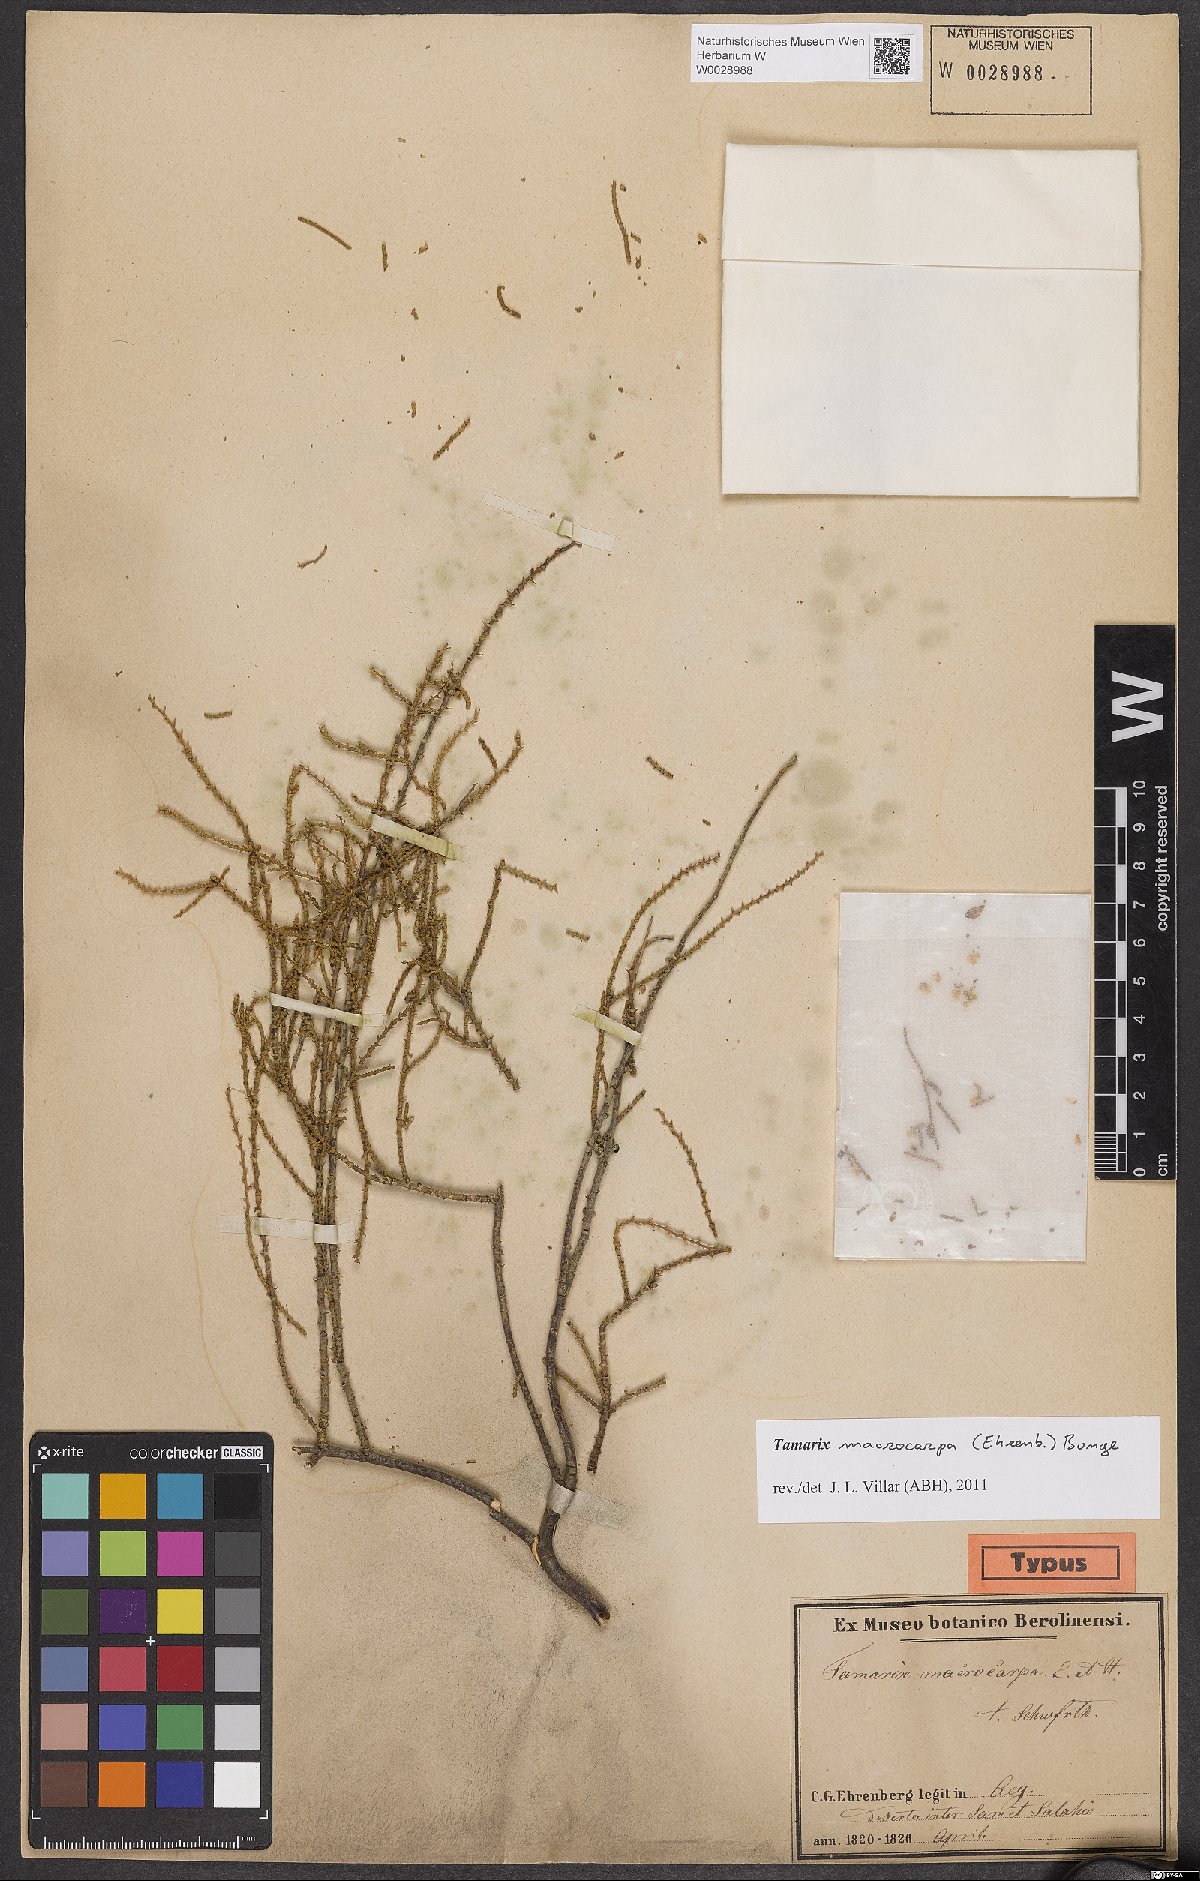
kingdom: Plantae
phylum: Tracheophyta
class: Magnoliopsida
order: Caryophyllales
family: Tamaricaceae
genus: Tamarix
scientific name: Tamarix macrocarpa
